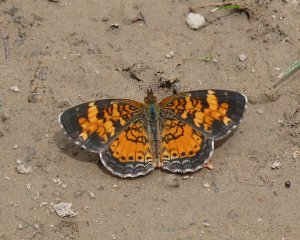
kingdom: Animalia
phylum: Arthropoda
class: Insecta
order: Lepidoptera
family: Nymphalidae
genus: Phyciodes
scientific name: Phyciodes tharos
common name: Northern Crescent
